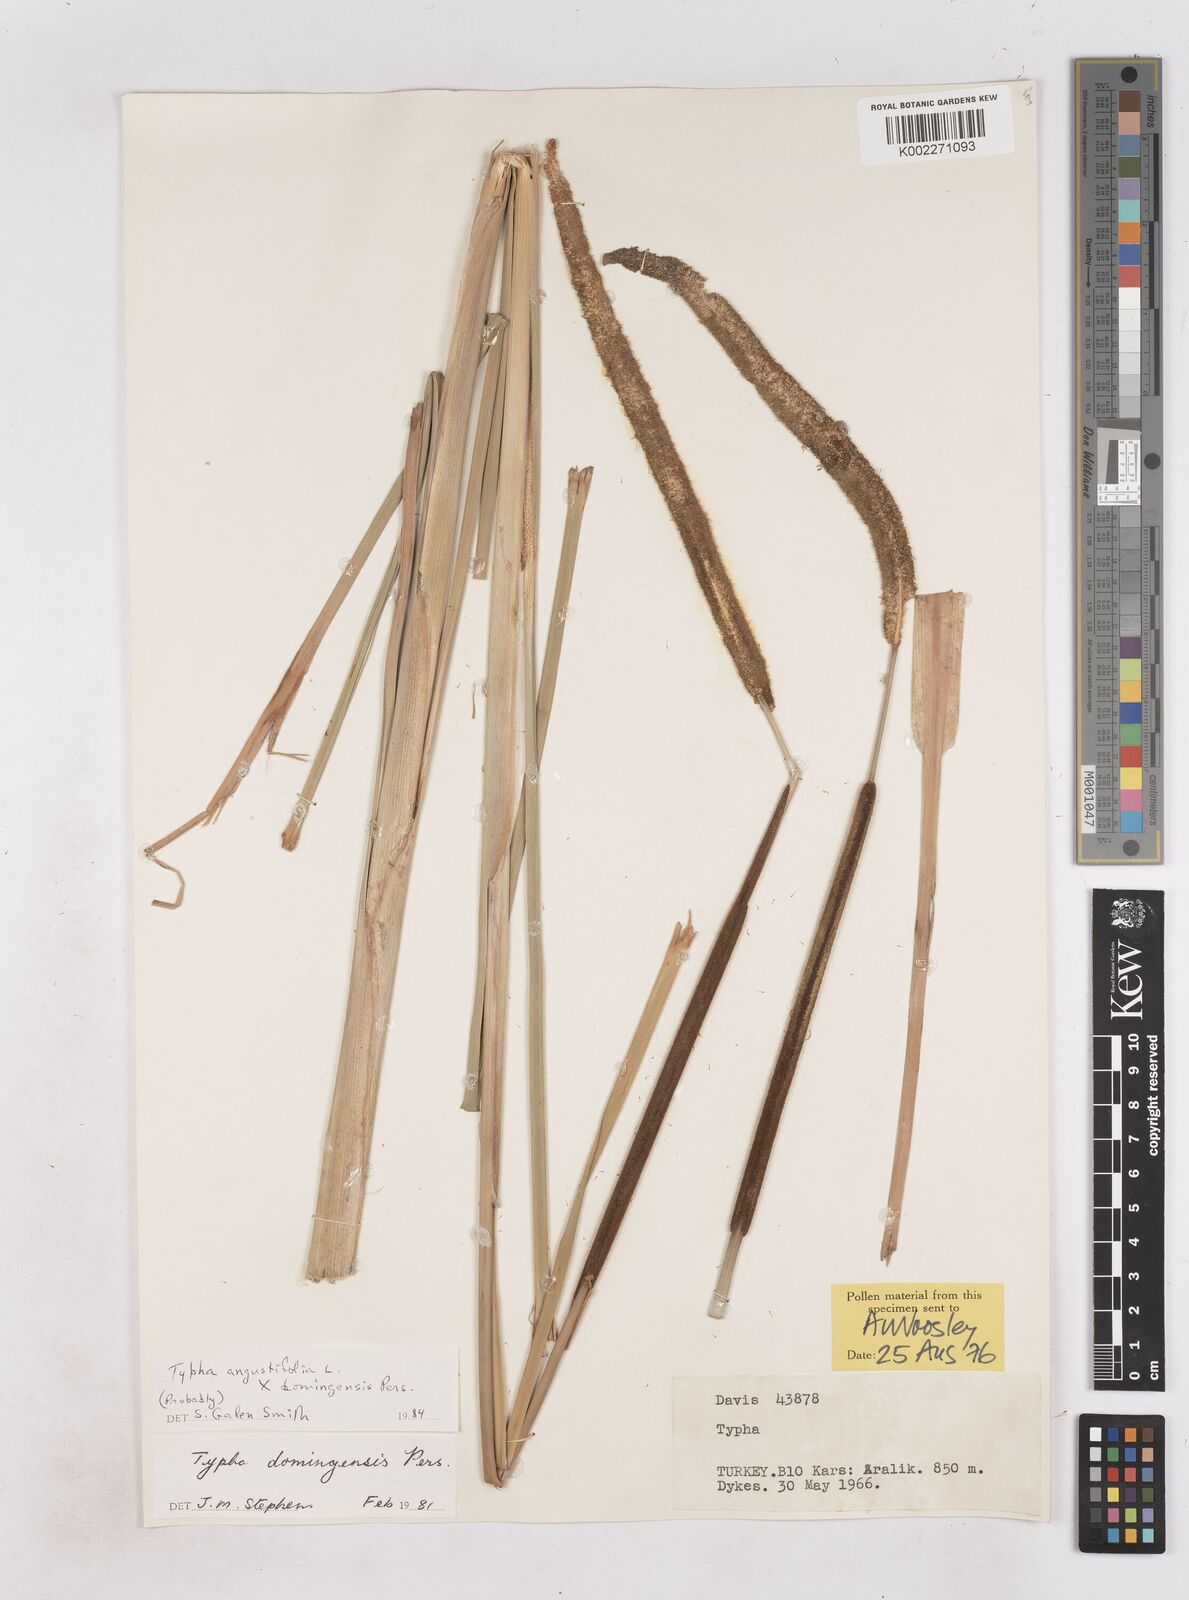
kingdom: Plantae
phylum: Tracheophyta
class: Liliopsida
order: Poales
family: Typhaceae
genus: Typha
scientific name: Typha
